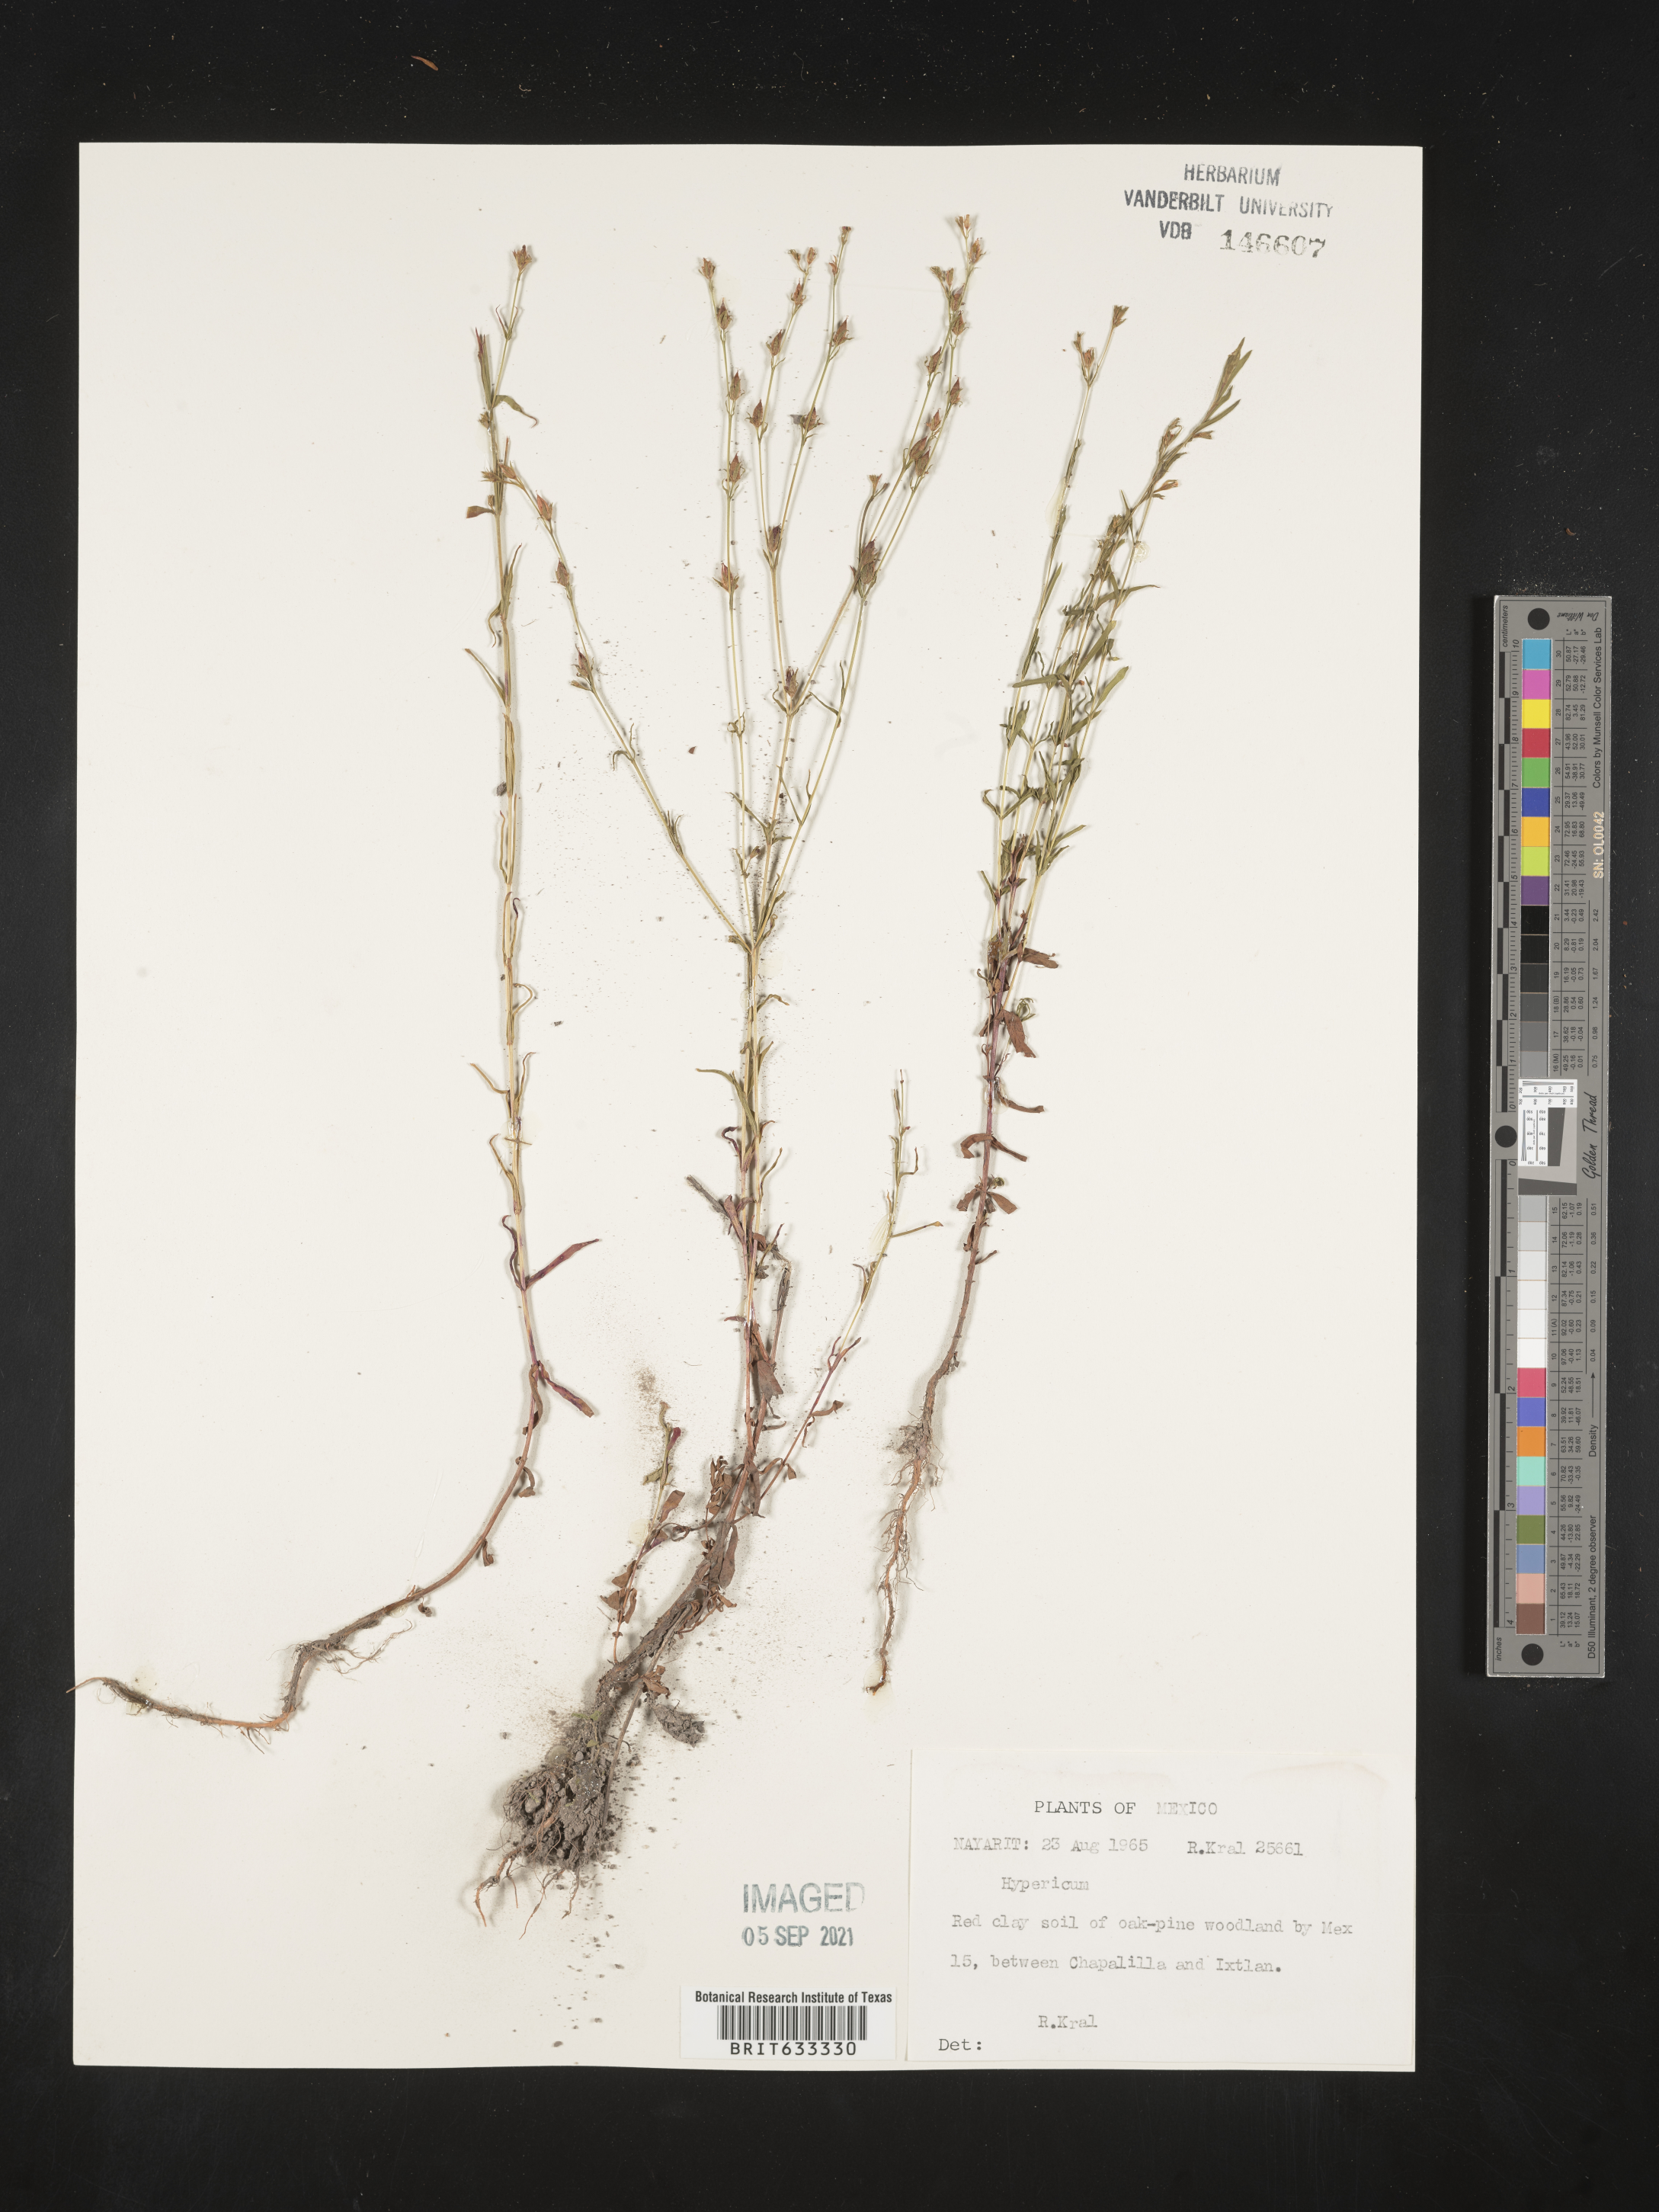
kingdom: Plantae
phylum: Tracheophyta
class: Magnoliopsida
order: Malpighiales
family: Hypericaceae
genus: Hypericum
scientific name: Hypericum
